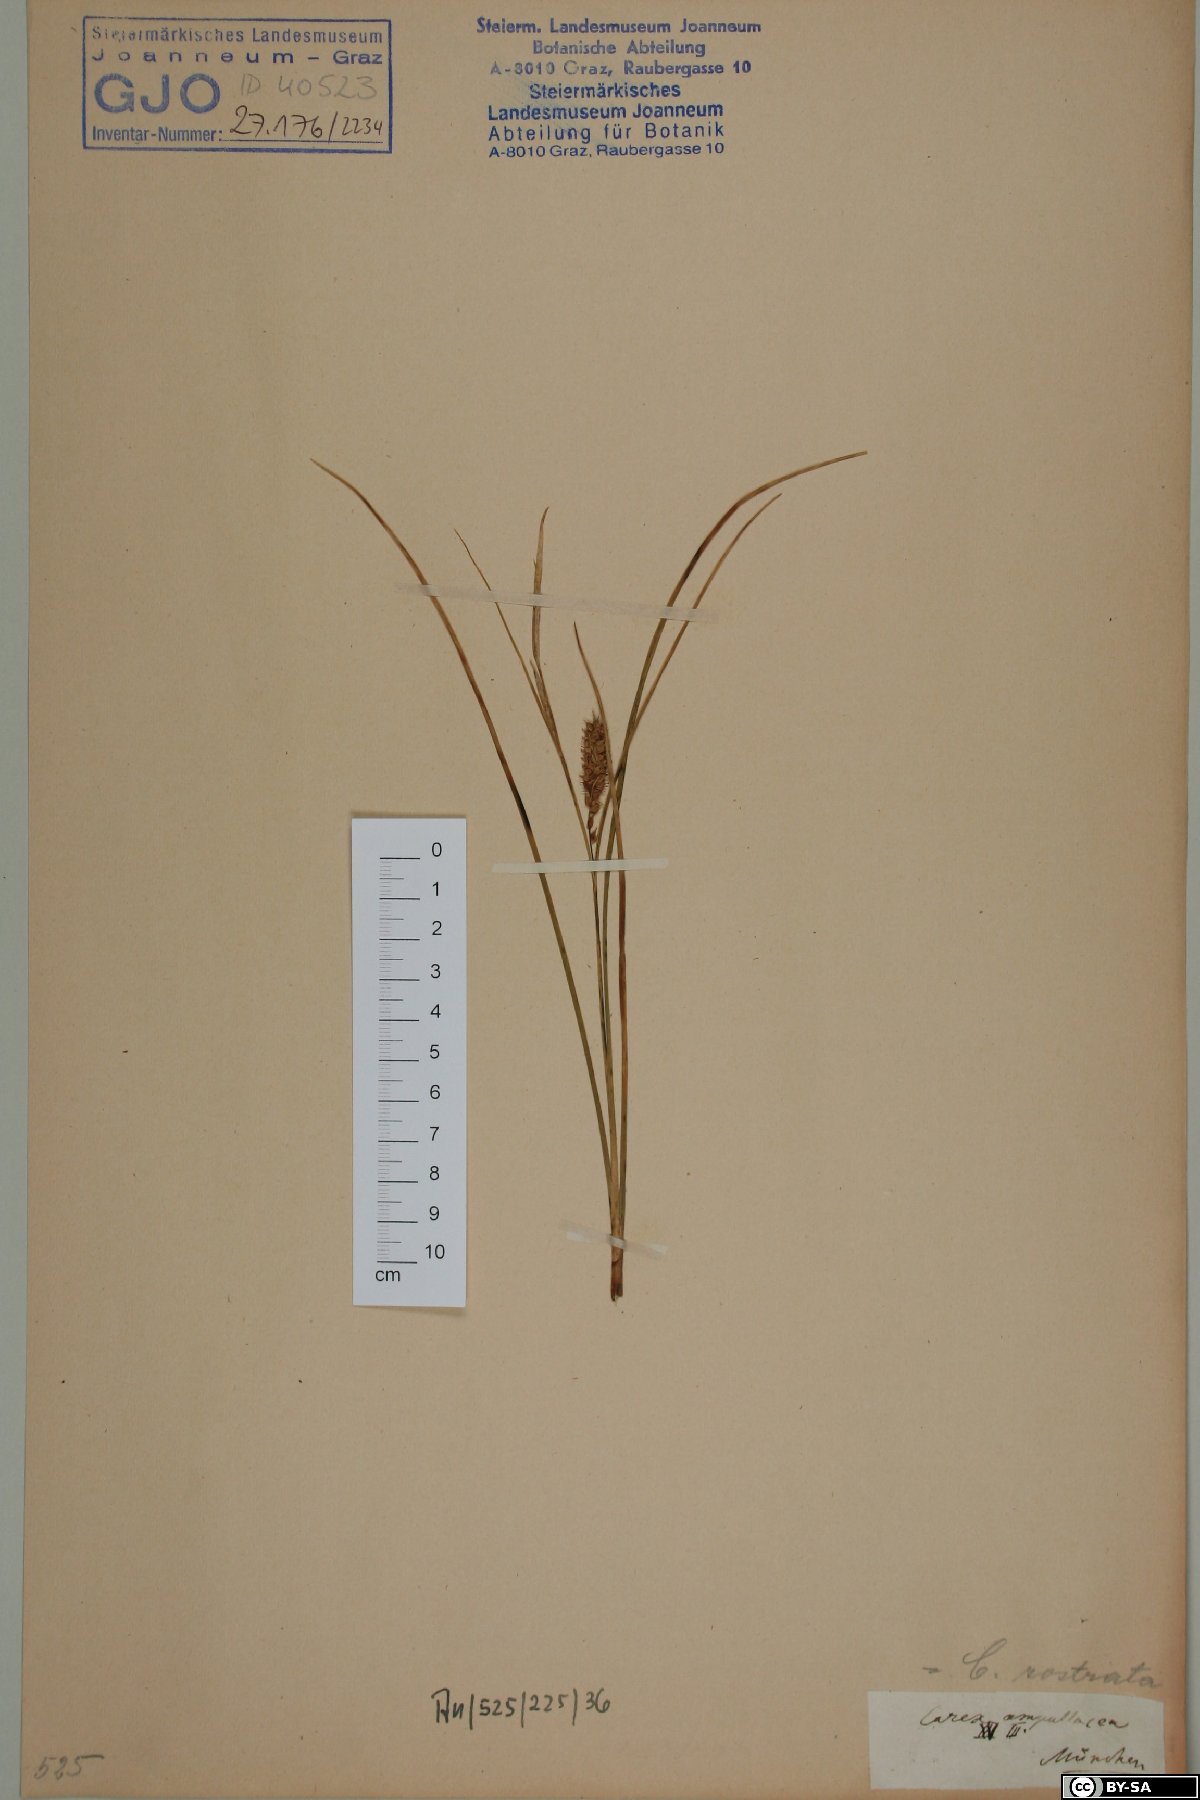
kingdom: Plantae
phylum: Tracheophyta
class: Liliopsida
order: Poales
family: Cyperaceae
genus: Carex
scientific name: Carex rostrata
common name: Bottle sedge
